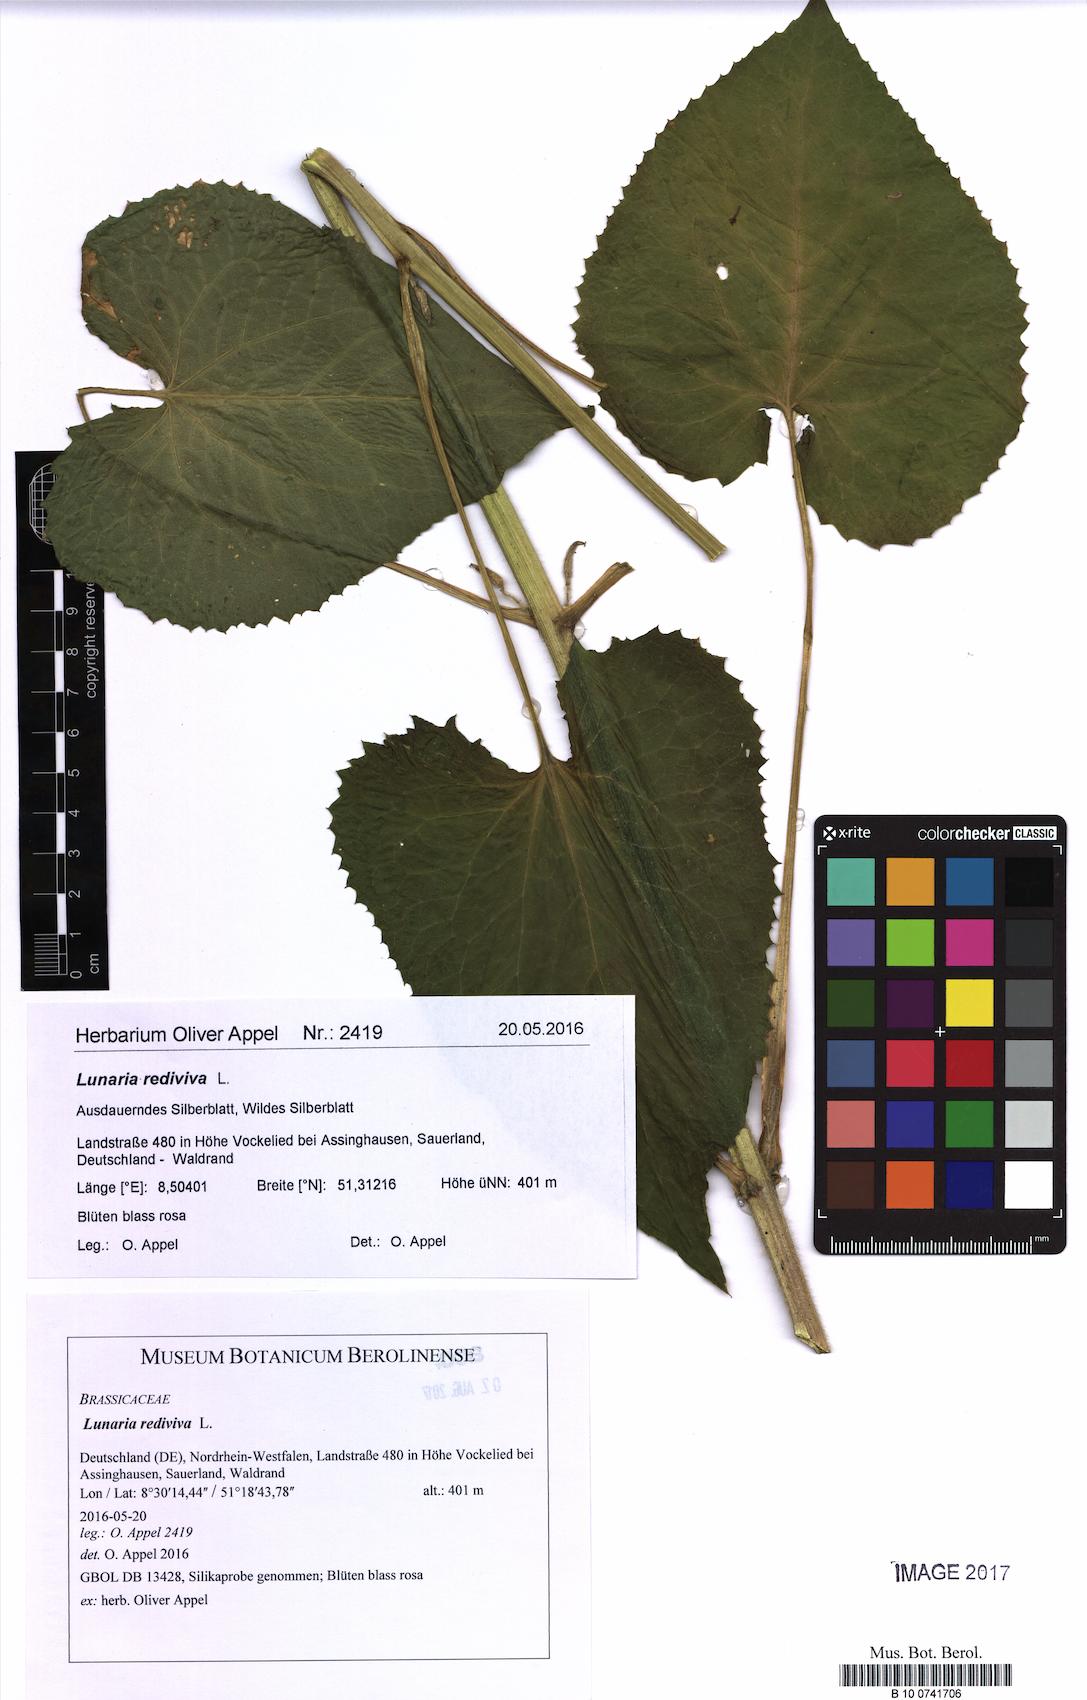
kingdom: Plantae
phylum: Tracheophyta
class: Magnoliopsida
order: Brassicales
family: Brassicaceae
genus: Lunaria
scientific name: Lunaria rediviva
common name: Perennial honesty
